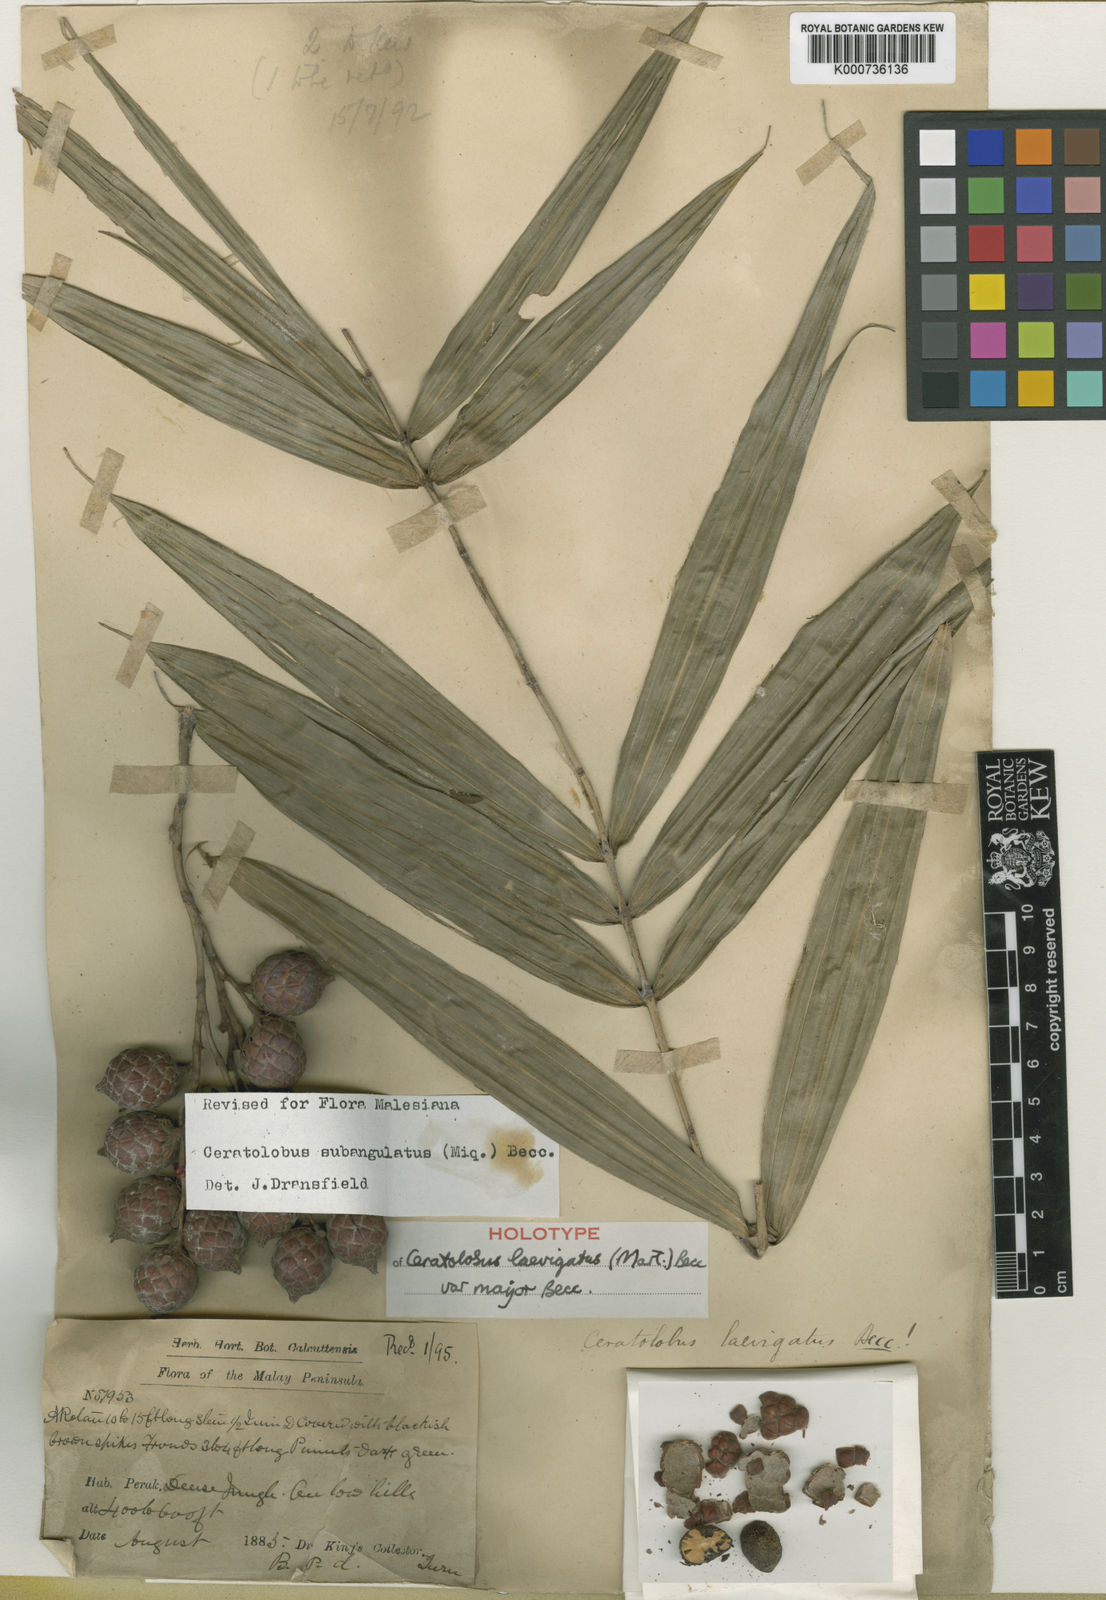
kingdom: Plantae
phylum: Tracheophyta
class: Liliopsida
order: Arecales
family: Arecaceae
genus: Ceratolobus
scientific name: Ceratolobus
